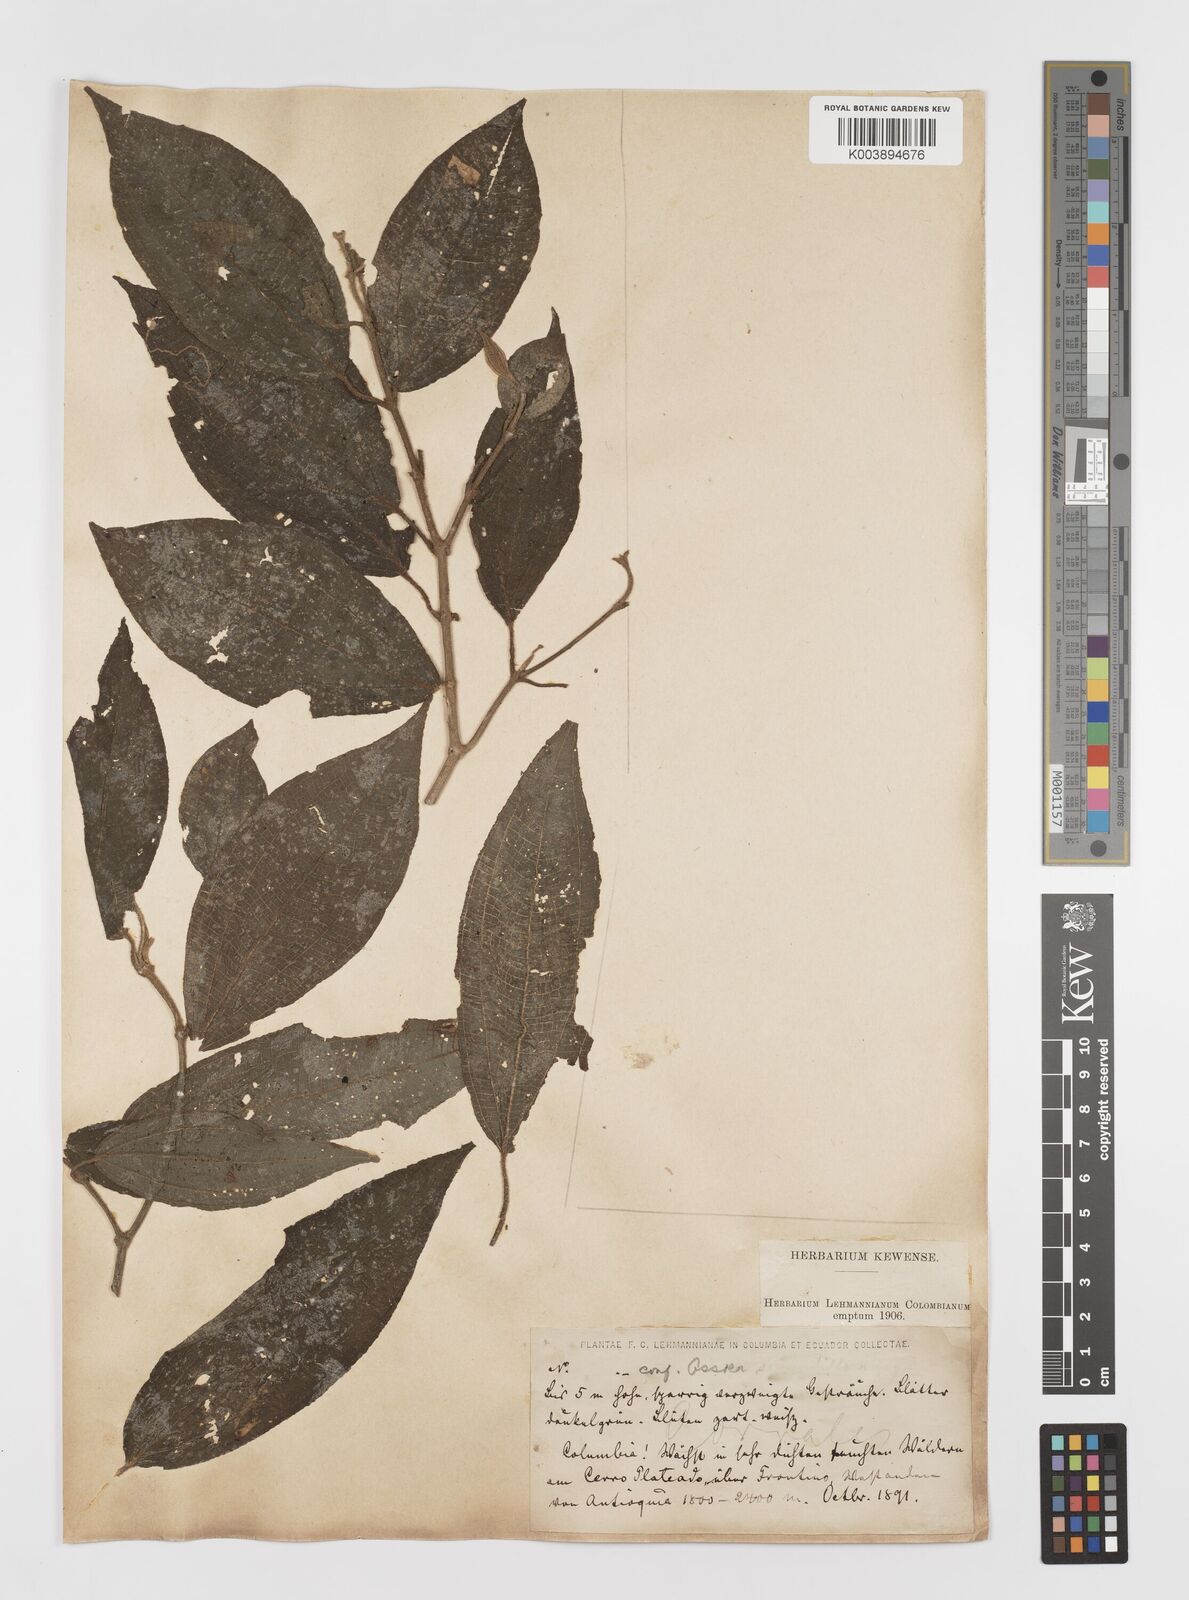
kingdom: Plantae
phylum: Tracheophyta
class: Magnoliopsida
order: Myrtales
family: Melastomataceae
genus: Ossaea
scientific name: Ossaea
